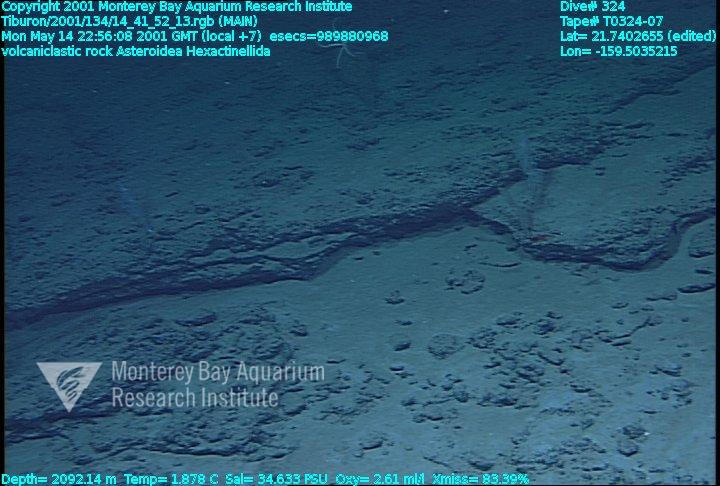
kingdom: Animalia
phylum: Porifera
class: Hexactinellida
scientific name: Hexactinellida
